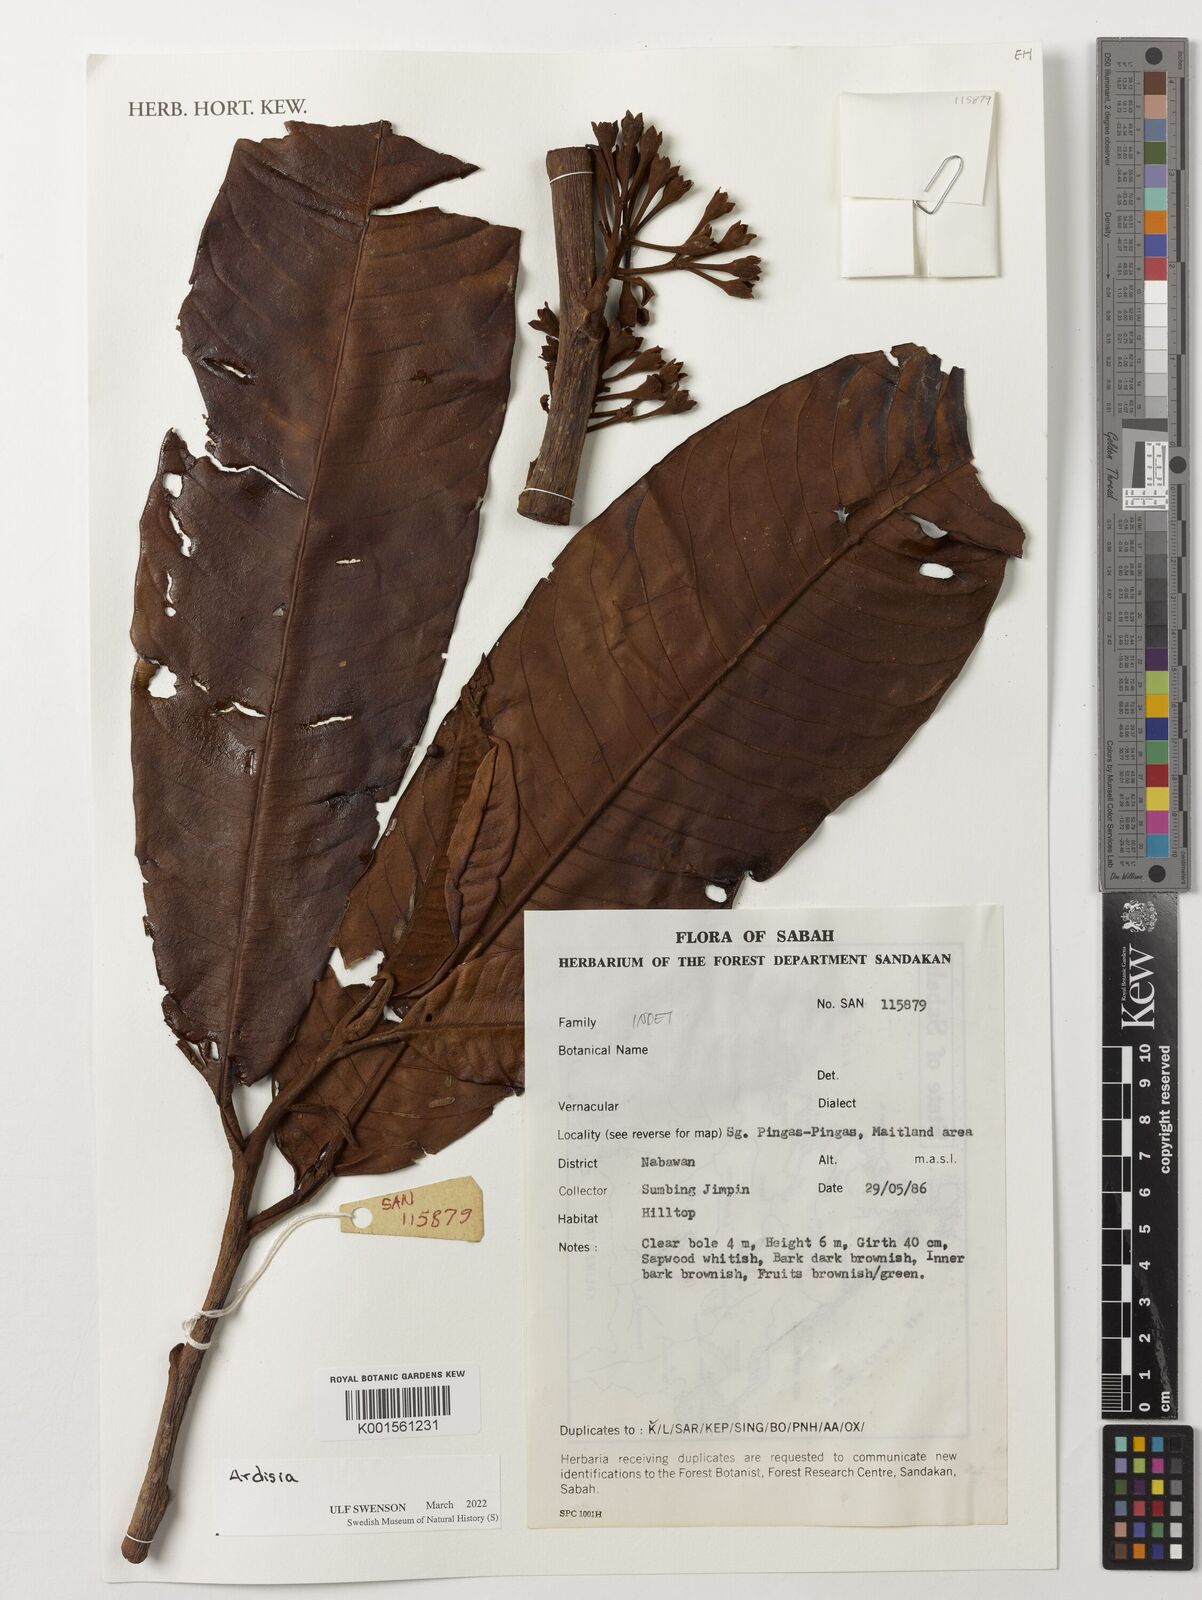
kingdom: Plantae
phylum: Tracheophyta
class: Magnoliopsida
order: Ericales
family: Primulaceae
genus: Ardisia
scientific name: Ardisia
